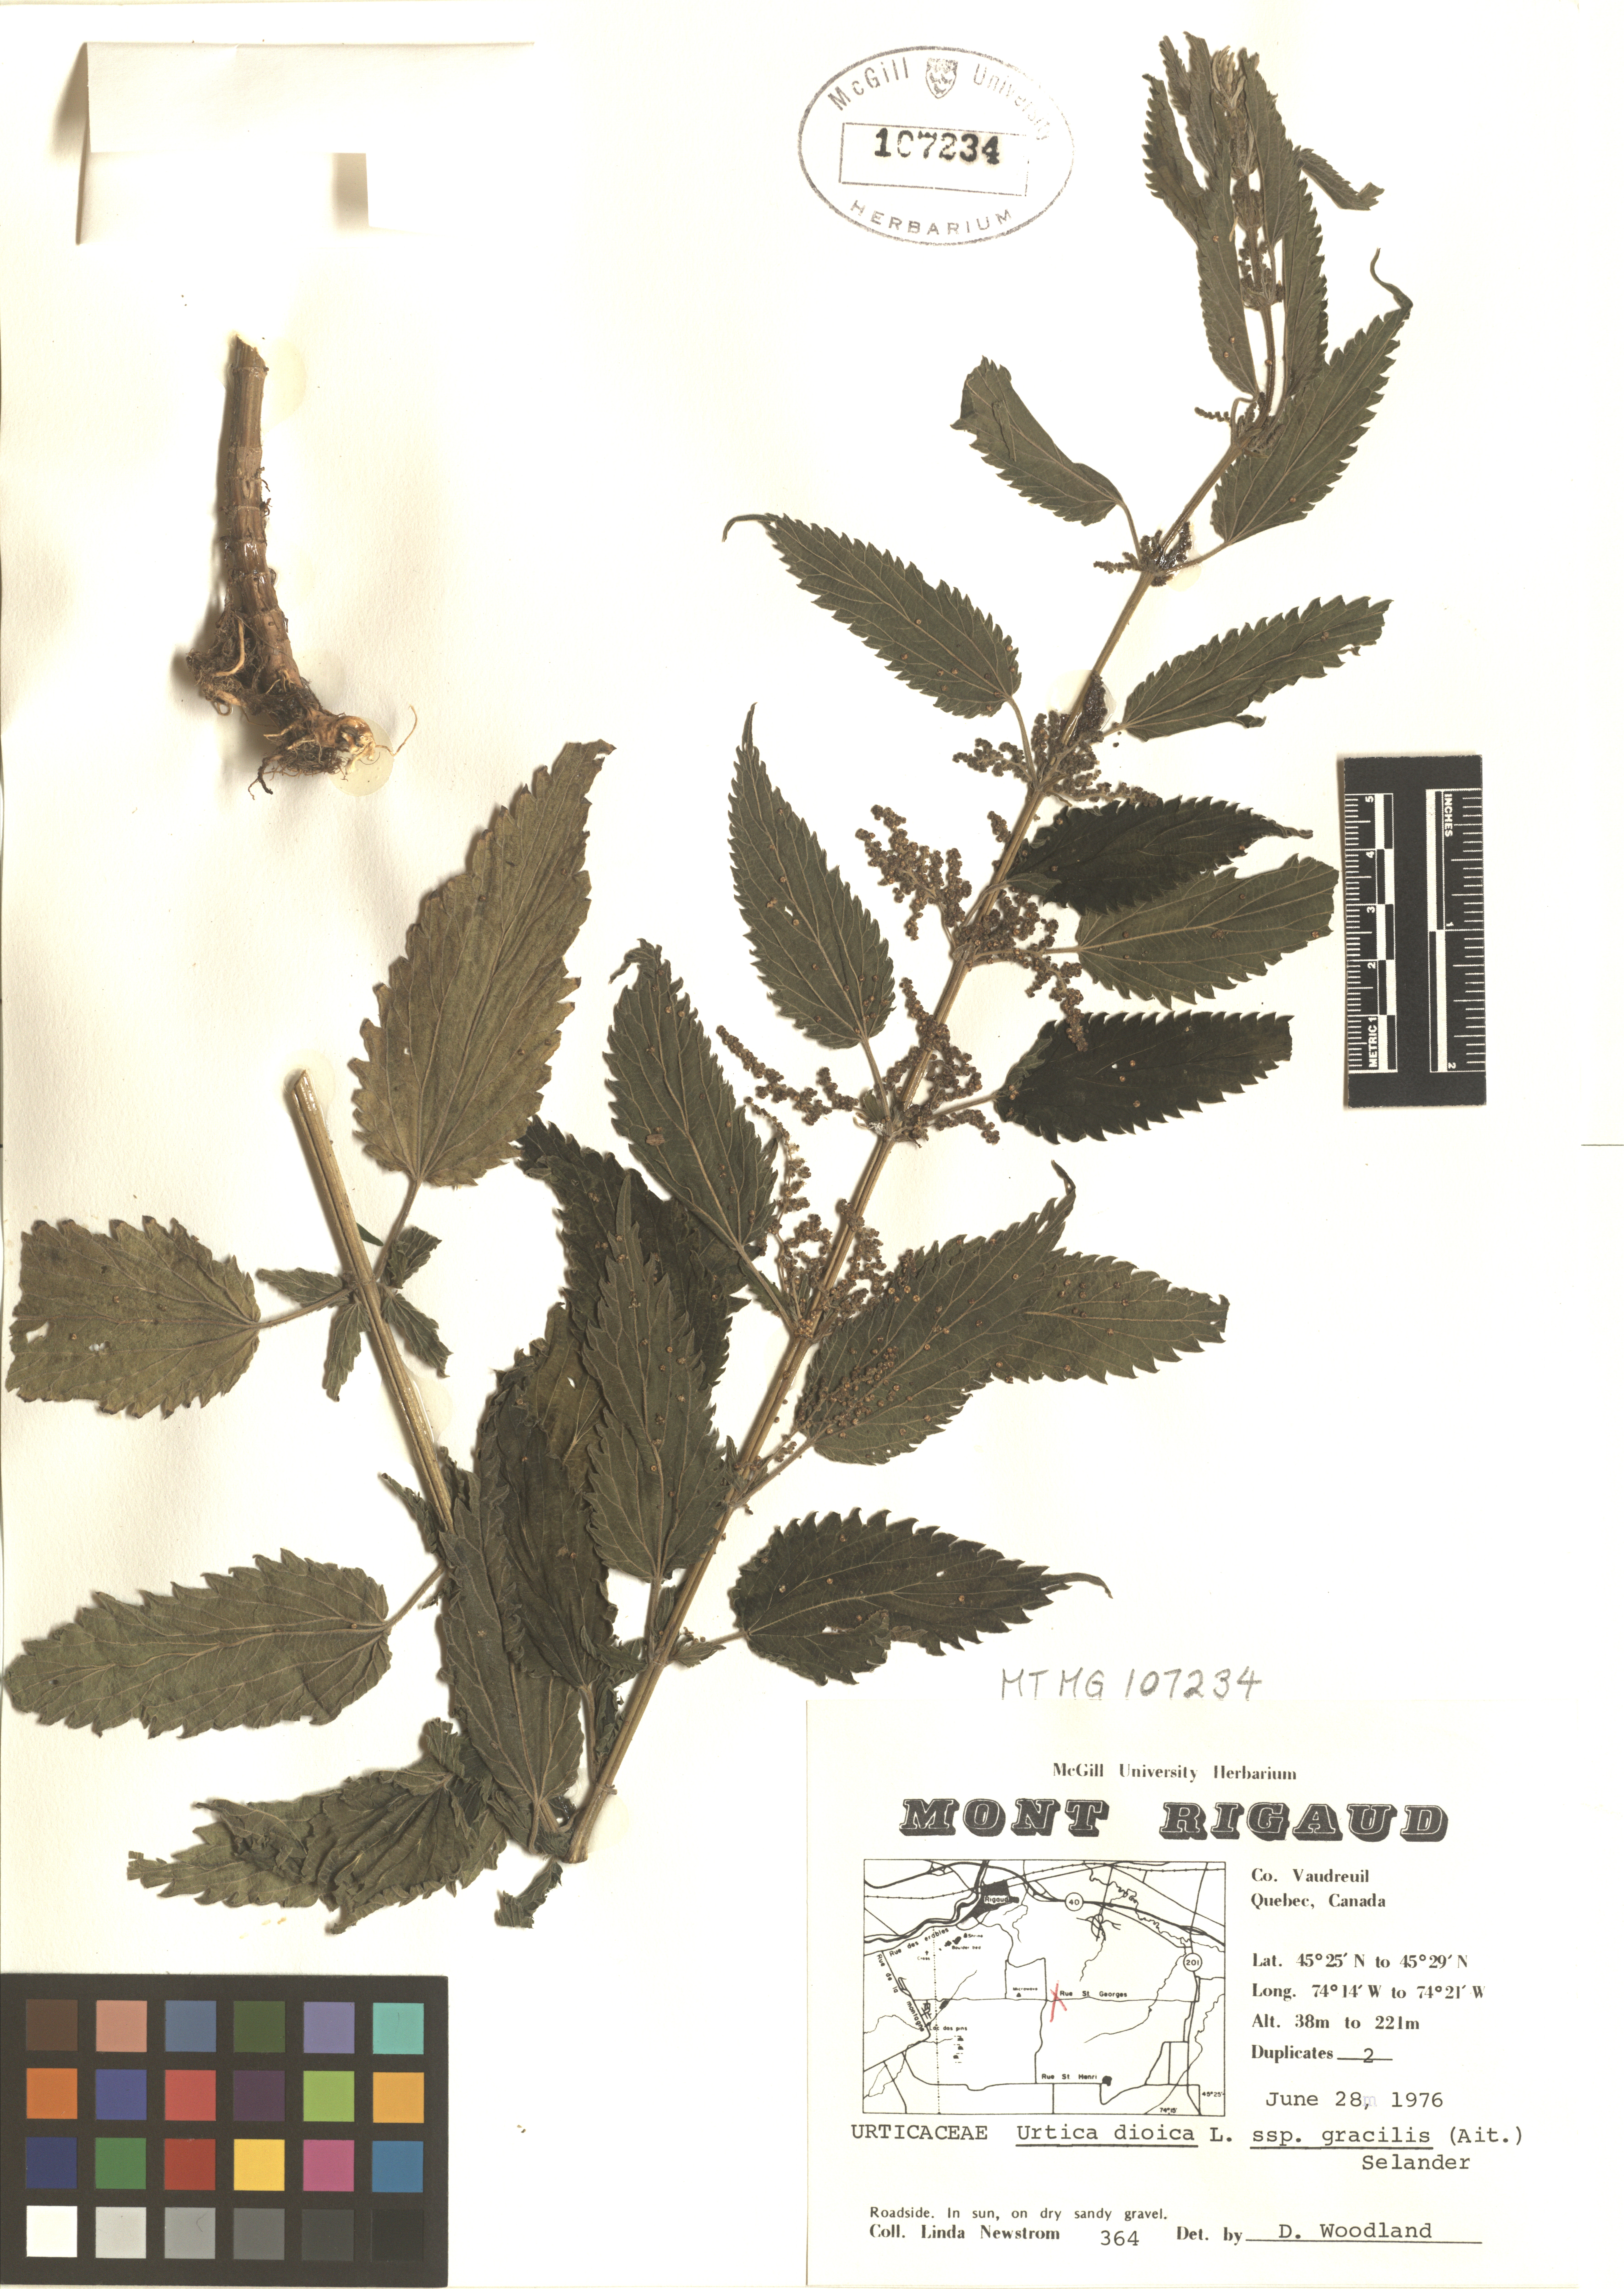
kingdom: Plantae
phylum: Tracheophyta
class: Magnoliopsida
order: Rosales
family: Urticaceae
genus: Urtica
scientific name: Urtica gracilis
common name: Slender stinging nettle
